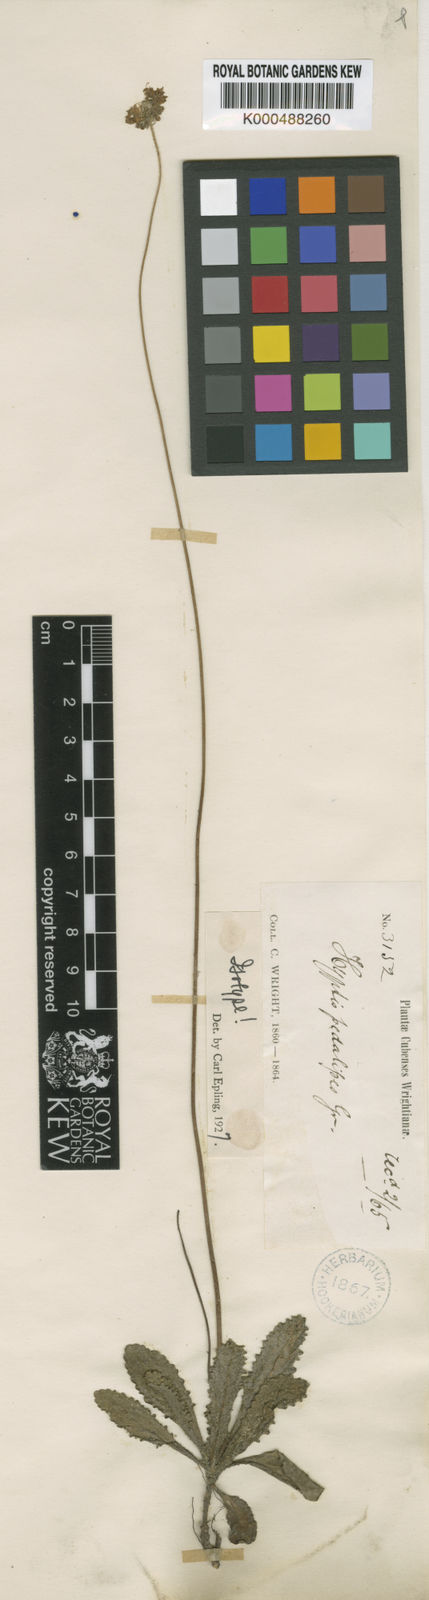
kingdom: Plantae
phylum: Tracheophyta
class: Magnoliopsida
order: Lamiales
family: Lamiaceae
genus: Cyanocephalus
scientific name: Cyanocephalus pedalipes
